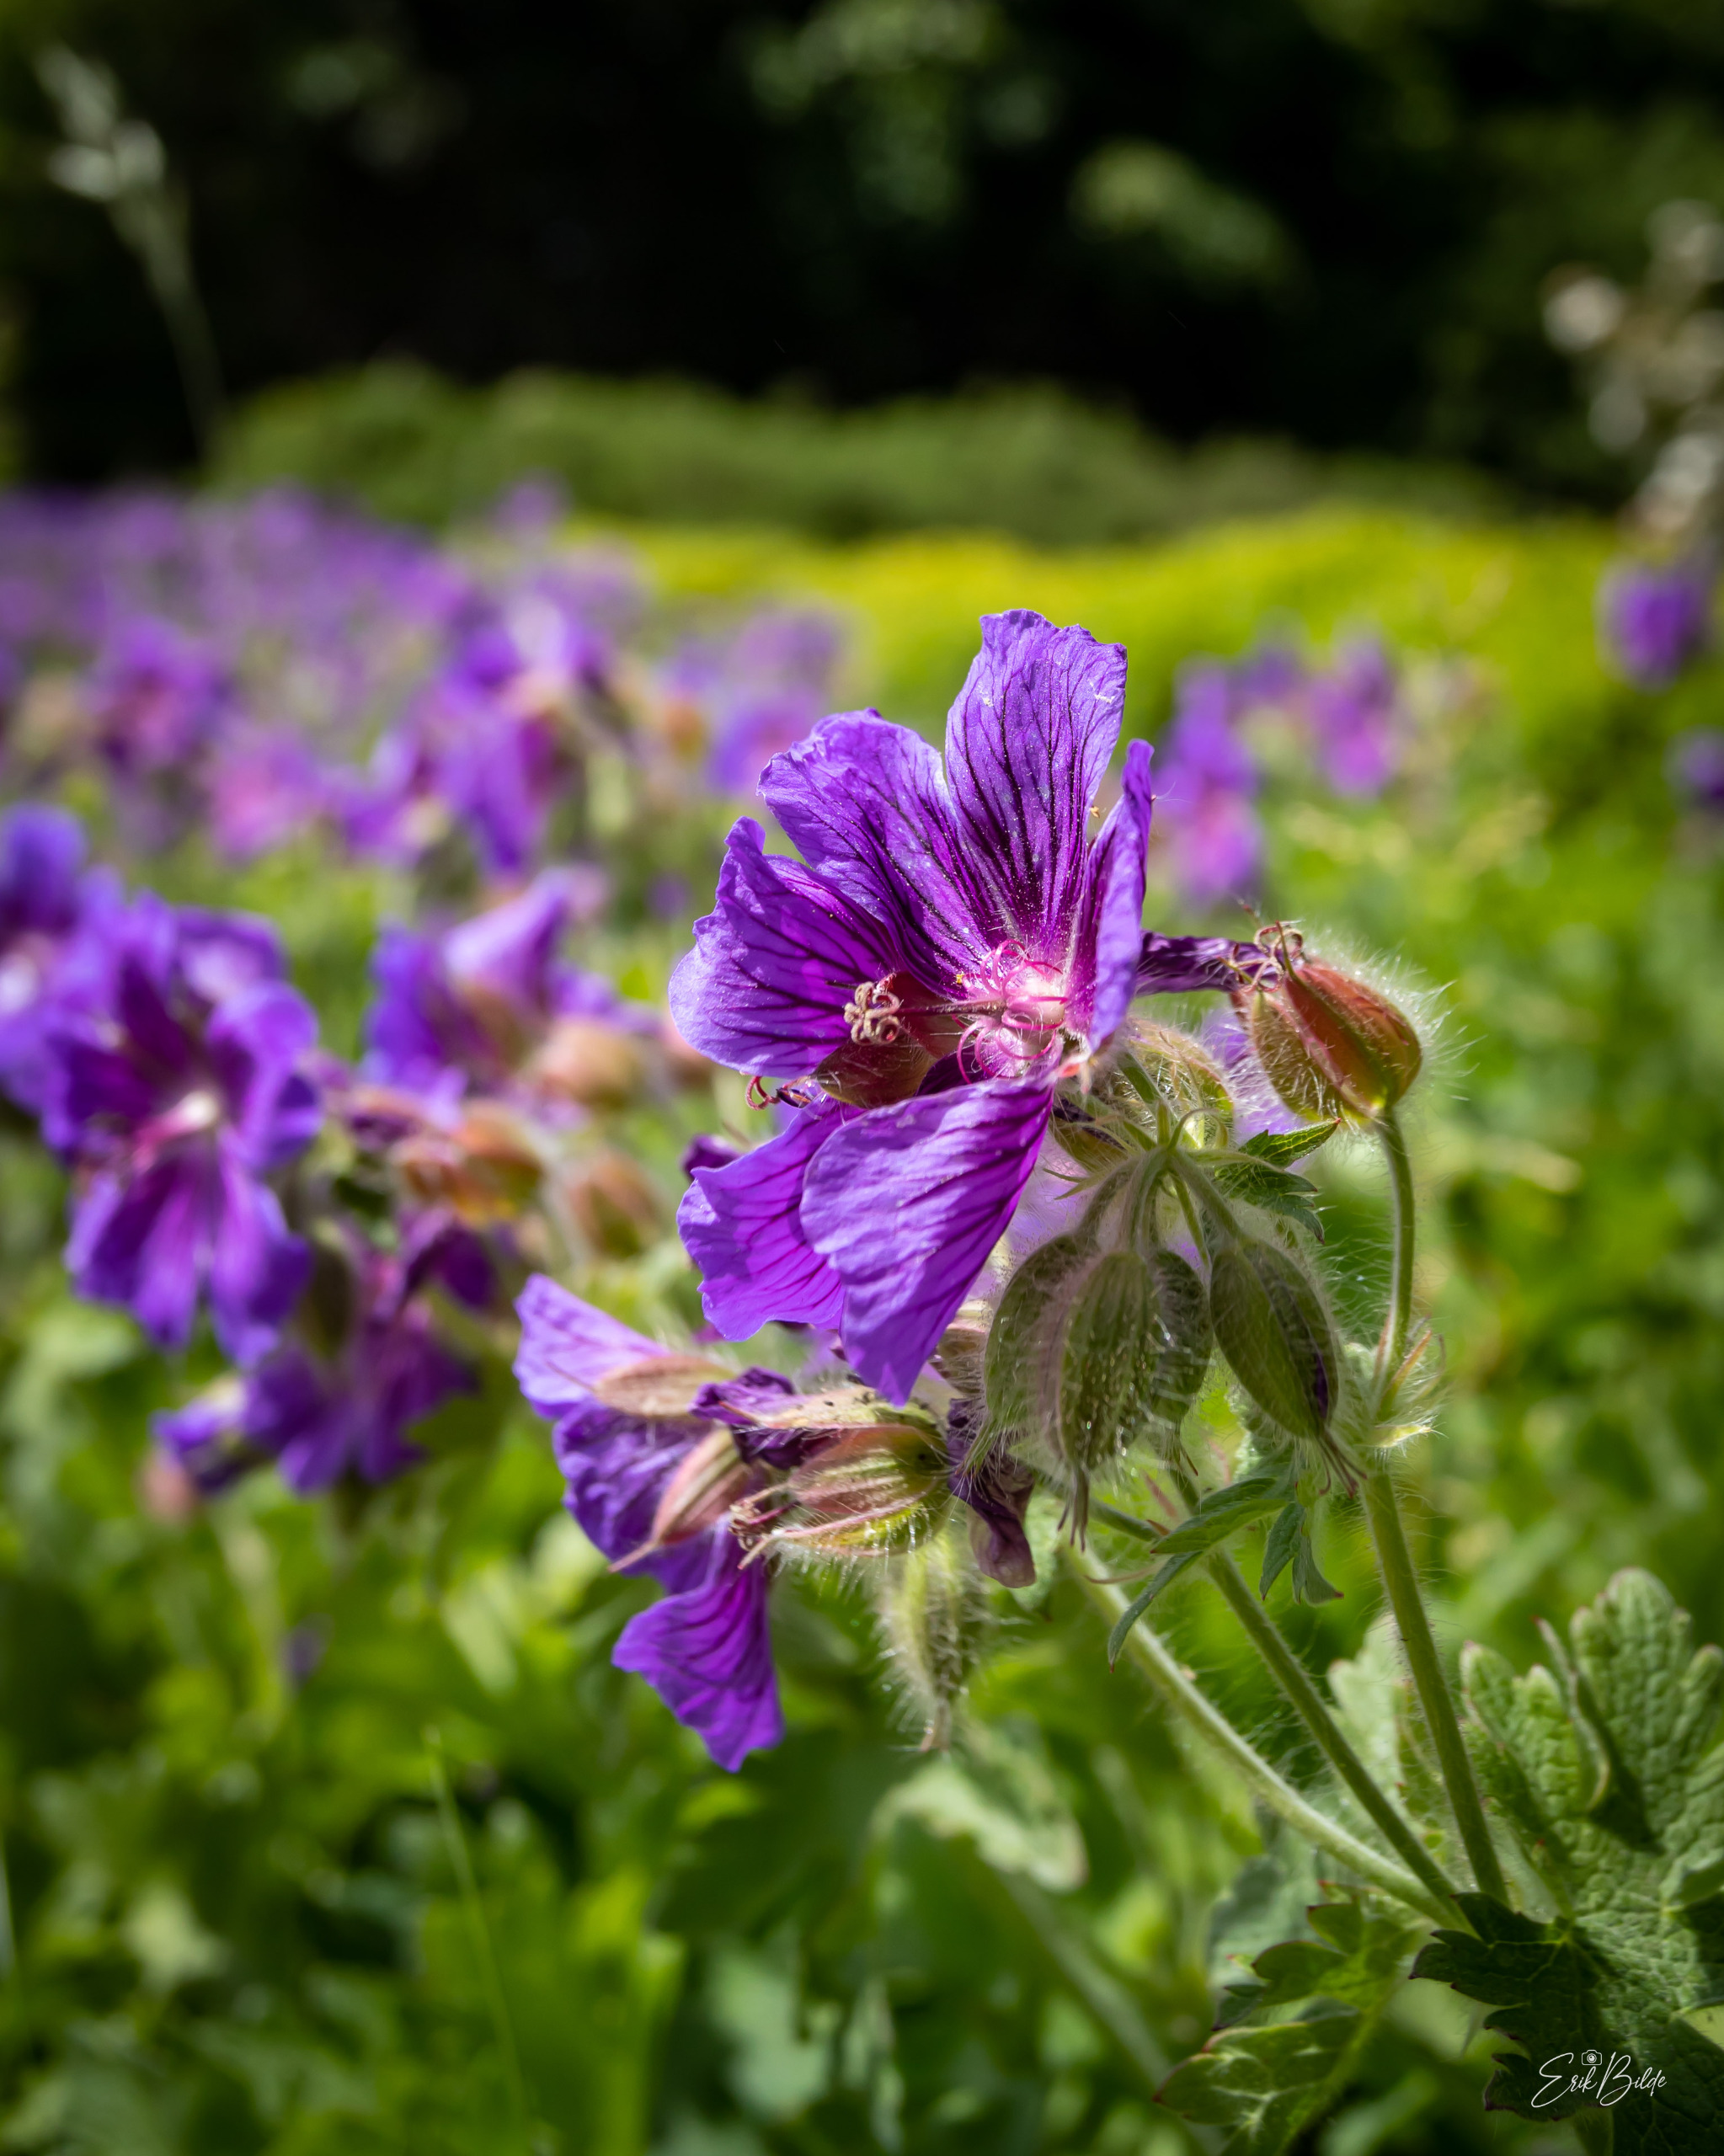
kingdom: Plantae
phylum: Tracheophyta
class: Magnoliopsida
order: Geraniales
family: Geraniaceae
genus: Geranium
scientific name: Geranium pratense
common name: Eng-storkenæb
